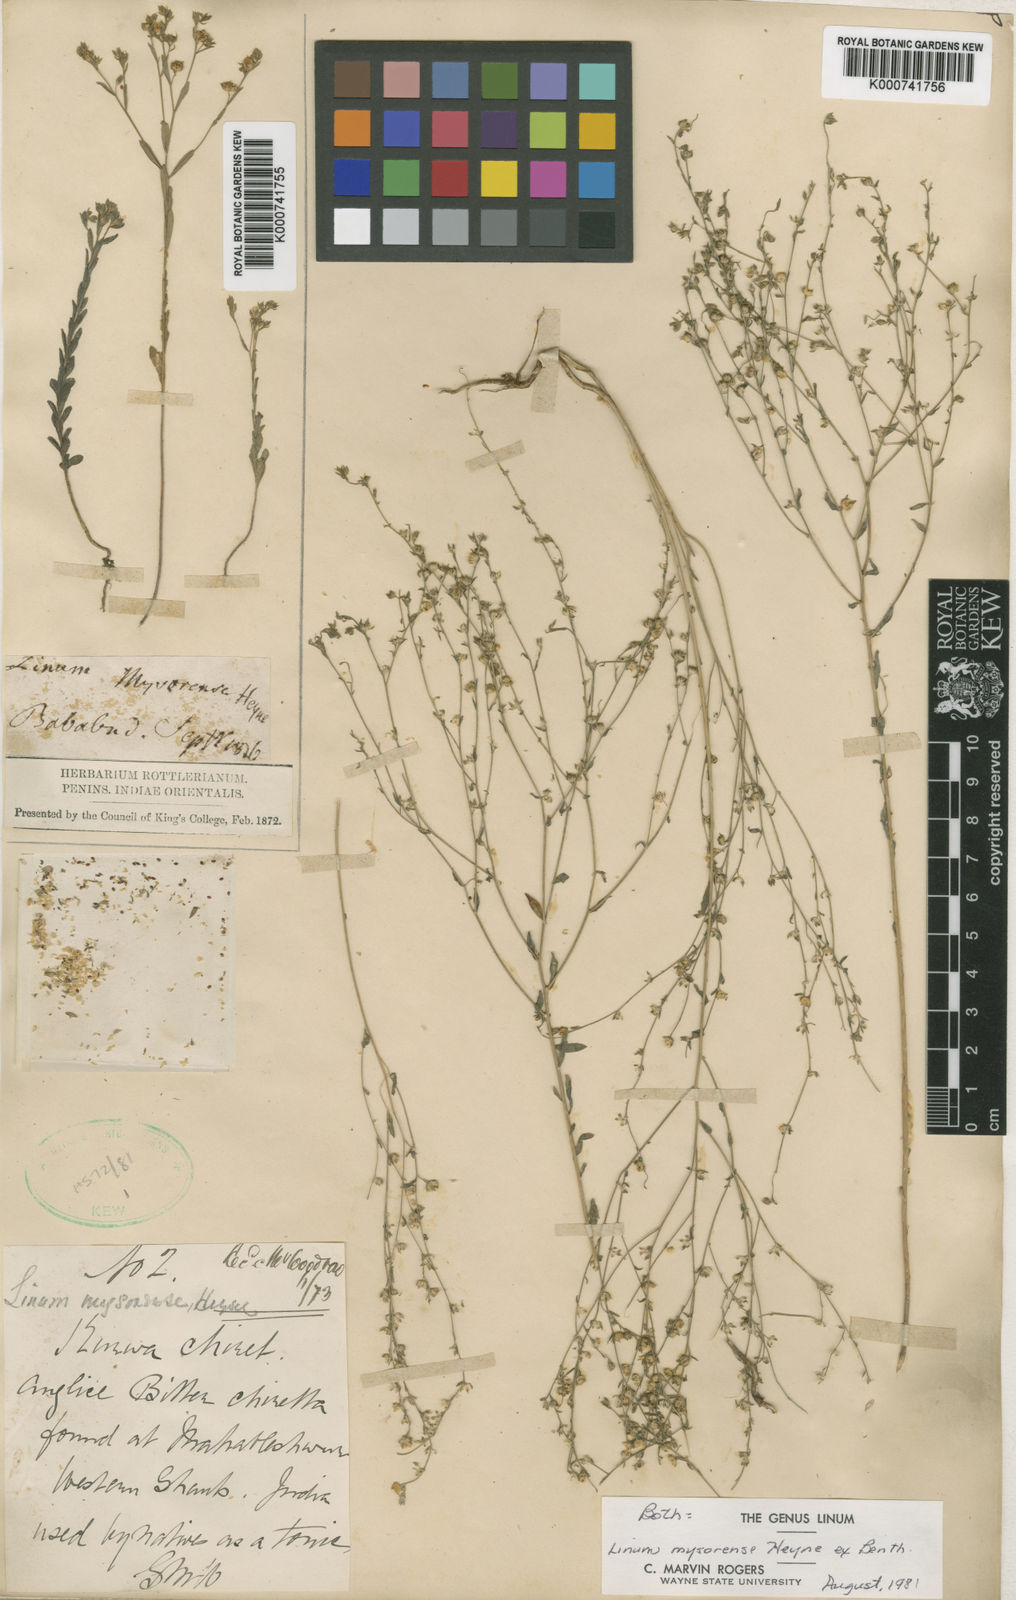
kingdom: Plantae
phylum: Tracheophyta
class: Magnoliopsida
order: Malpighiales
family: Linaceae
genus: Linum
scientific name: Linum
